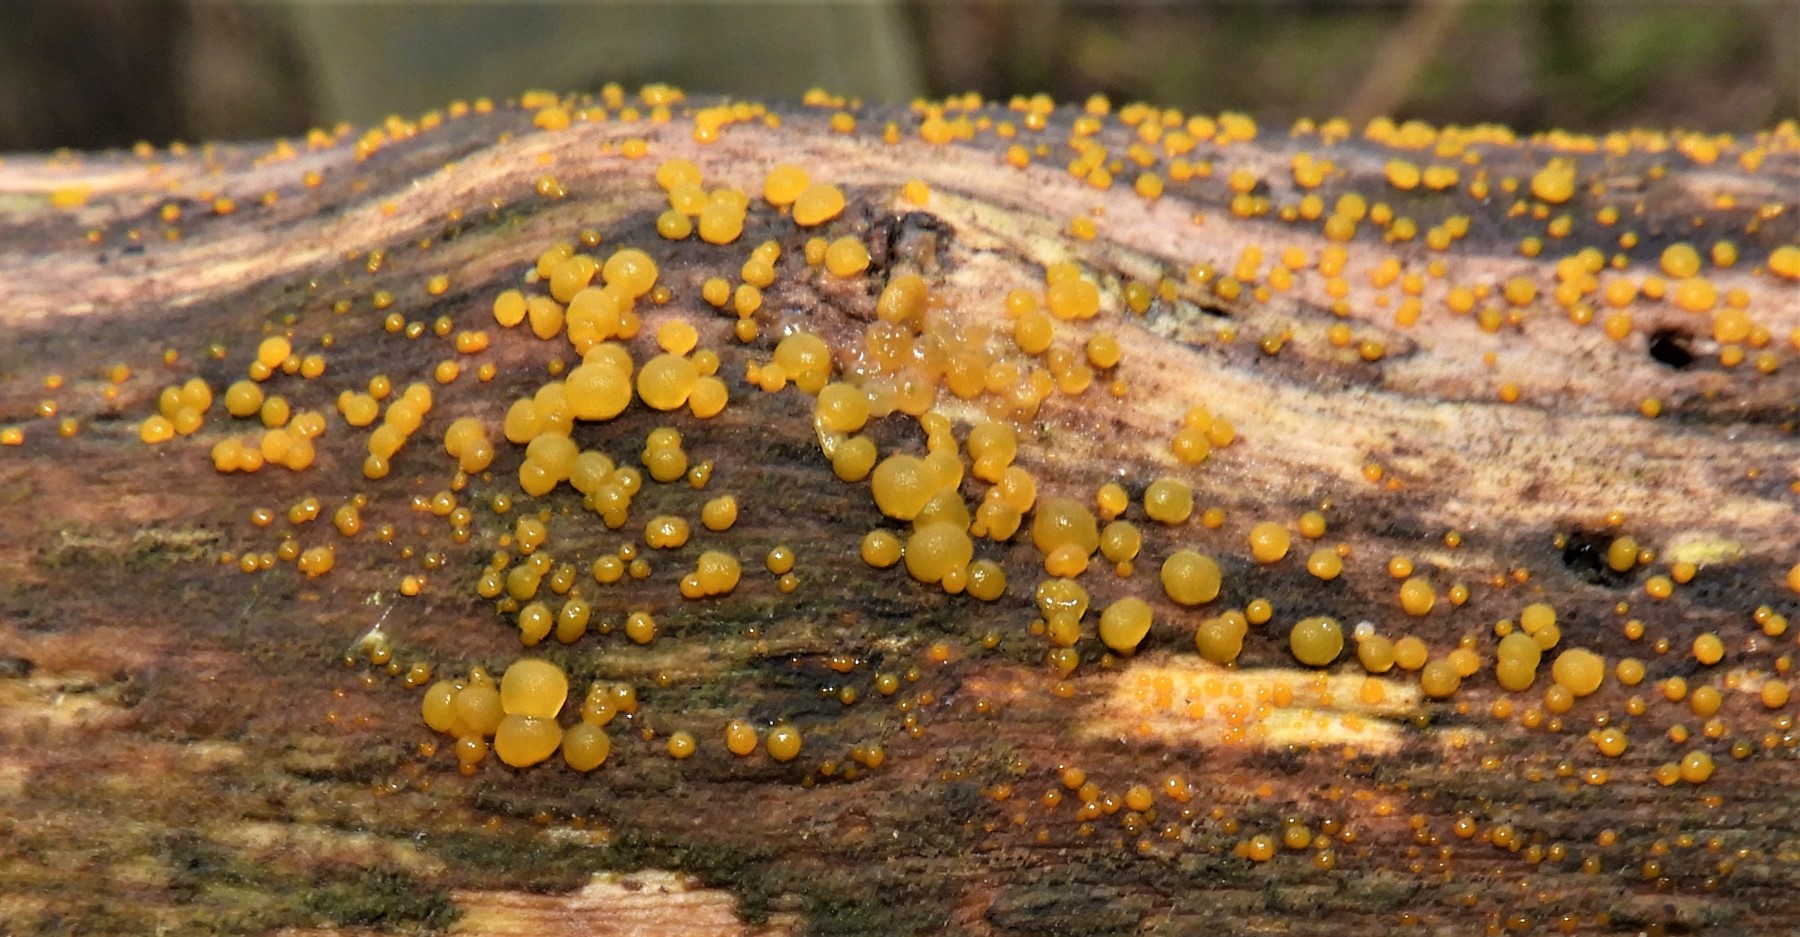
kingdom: Fungi
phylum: Basidiomycota
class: Dacrymycetes
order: Dacrymycetales
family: Dacrymycetaceae
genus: Dacrymyces
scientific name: Dacrymyces stillatus
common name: almindelig tåresvamp
